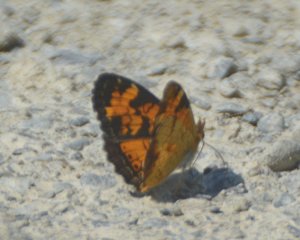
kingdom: Animalia
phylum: Arthropoda
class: Insecta
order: Lepidoptera
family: Nymphalidae
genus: Phyciodes
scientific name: Phyciodes tharos
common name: Northern Crescent
